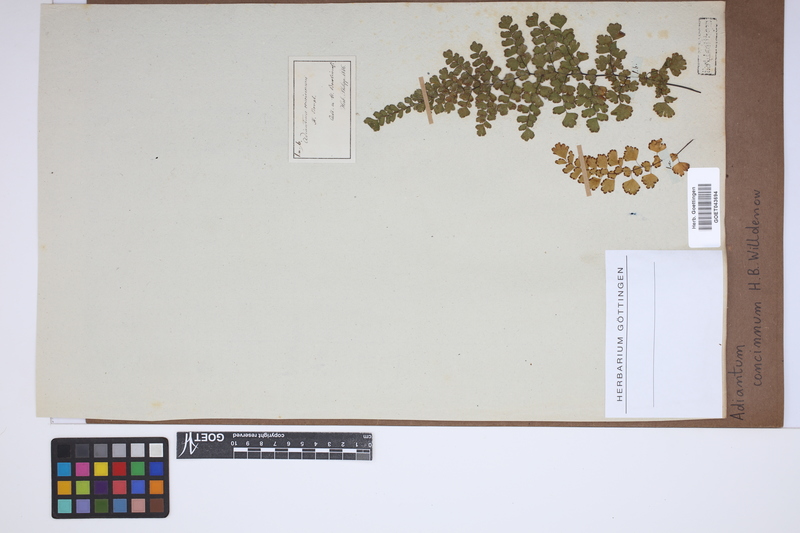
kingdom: Plantae
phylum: Tracheophyta
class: Polypodiopsida
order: Polypodiales
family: Pteridaceae
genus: Adiantum
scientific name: Adiantum concinnum
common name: Brittle maidenhair fern
